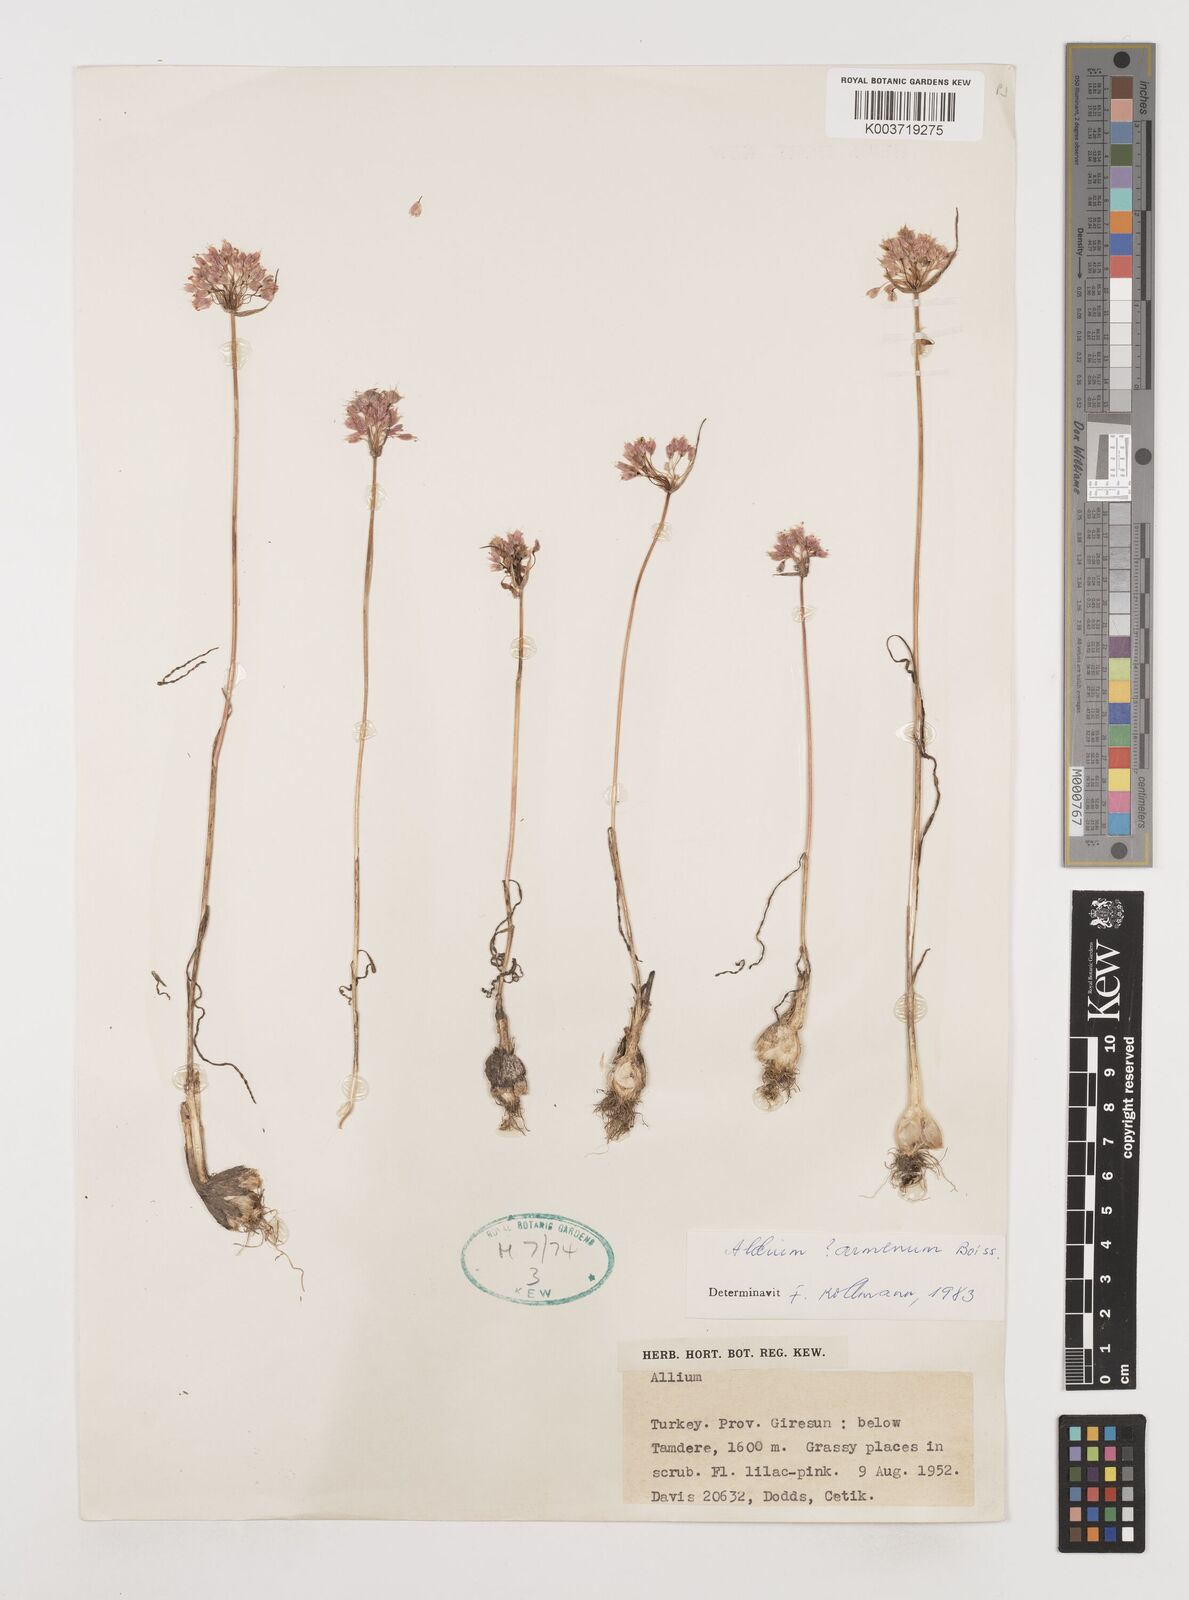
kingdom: Plantae
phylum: Tracheophyta
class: Liliopsida
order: Asparagales
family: Amaryllidaceae
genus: Allium
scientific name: Allium armenum
